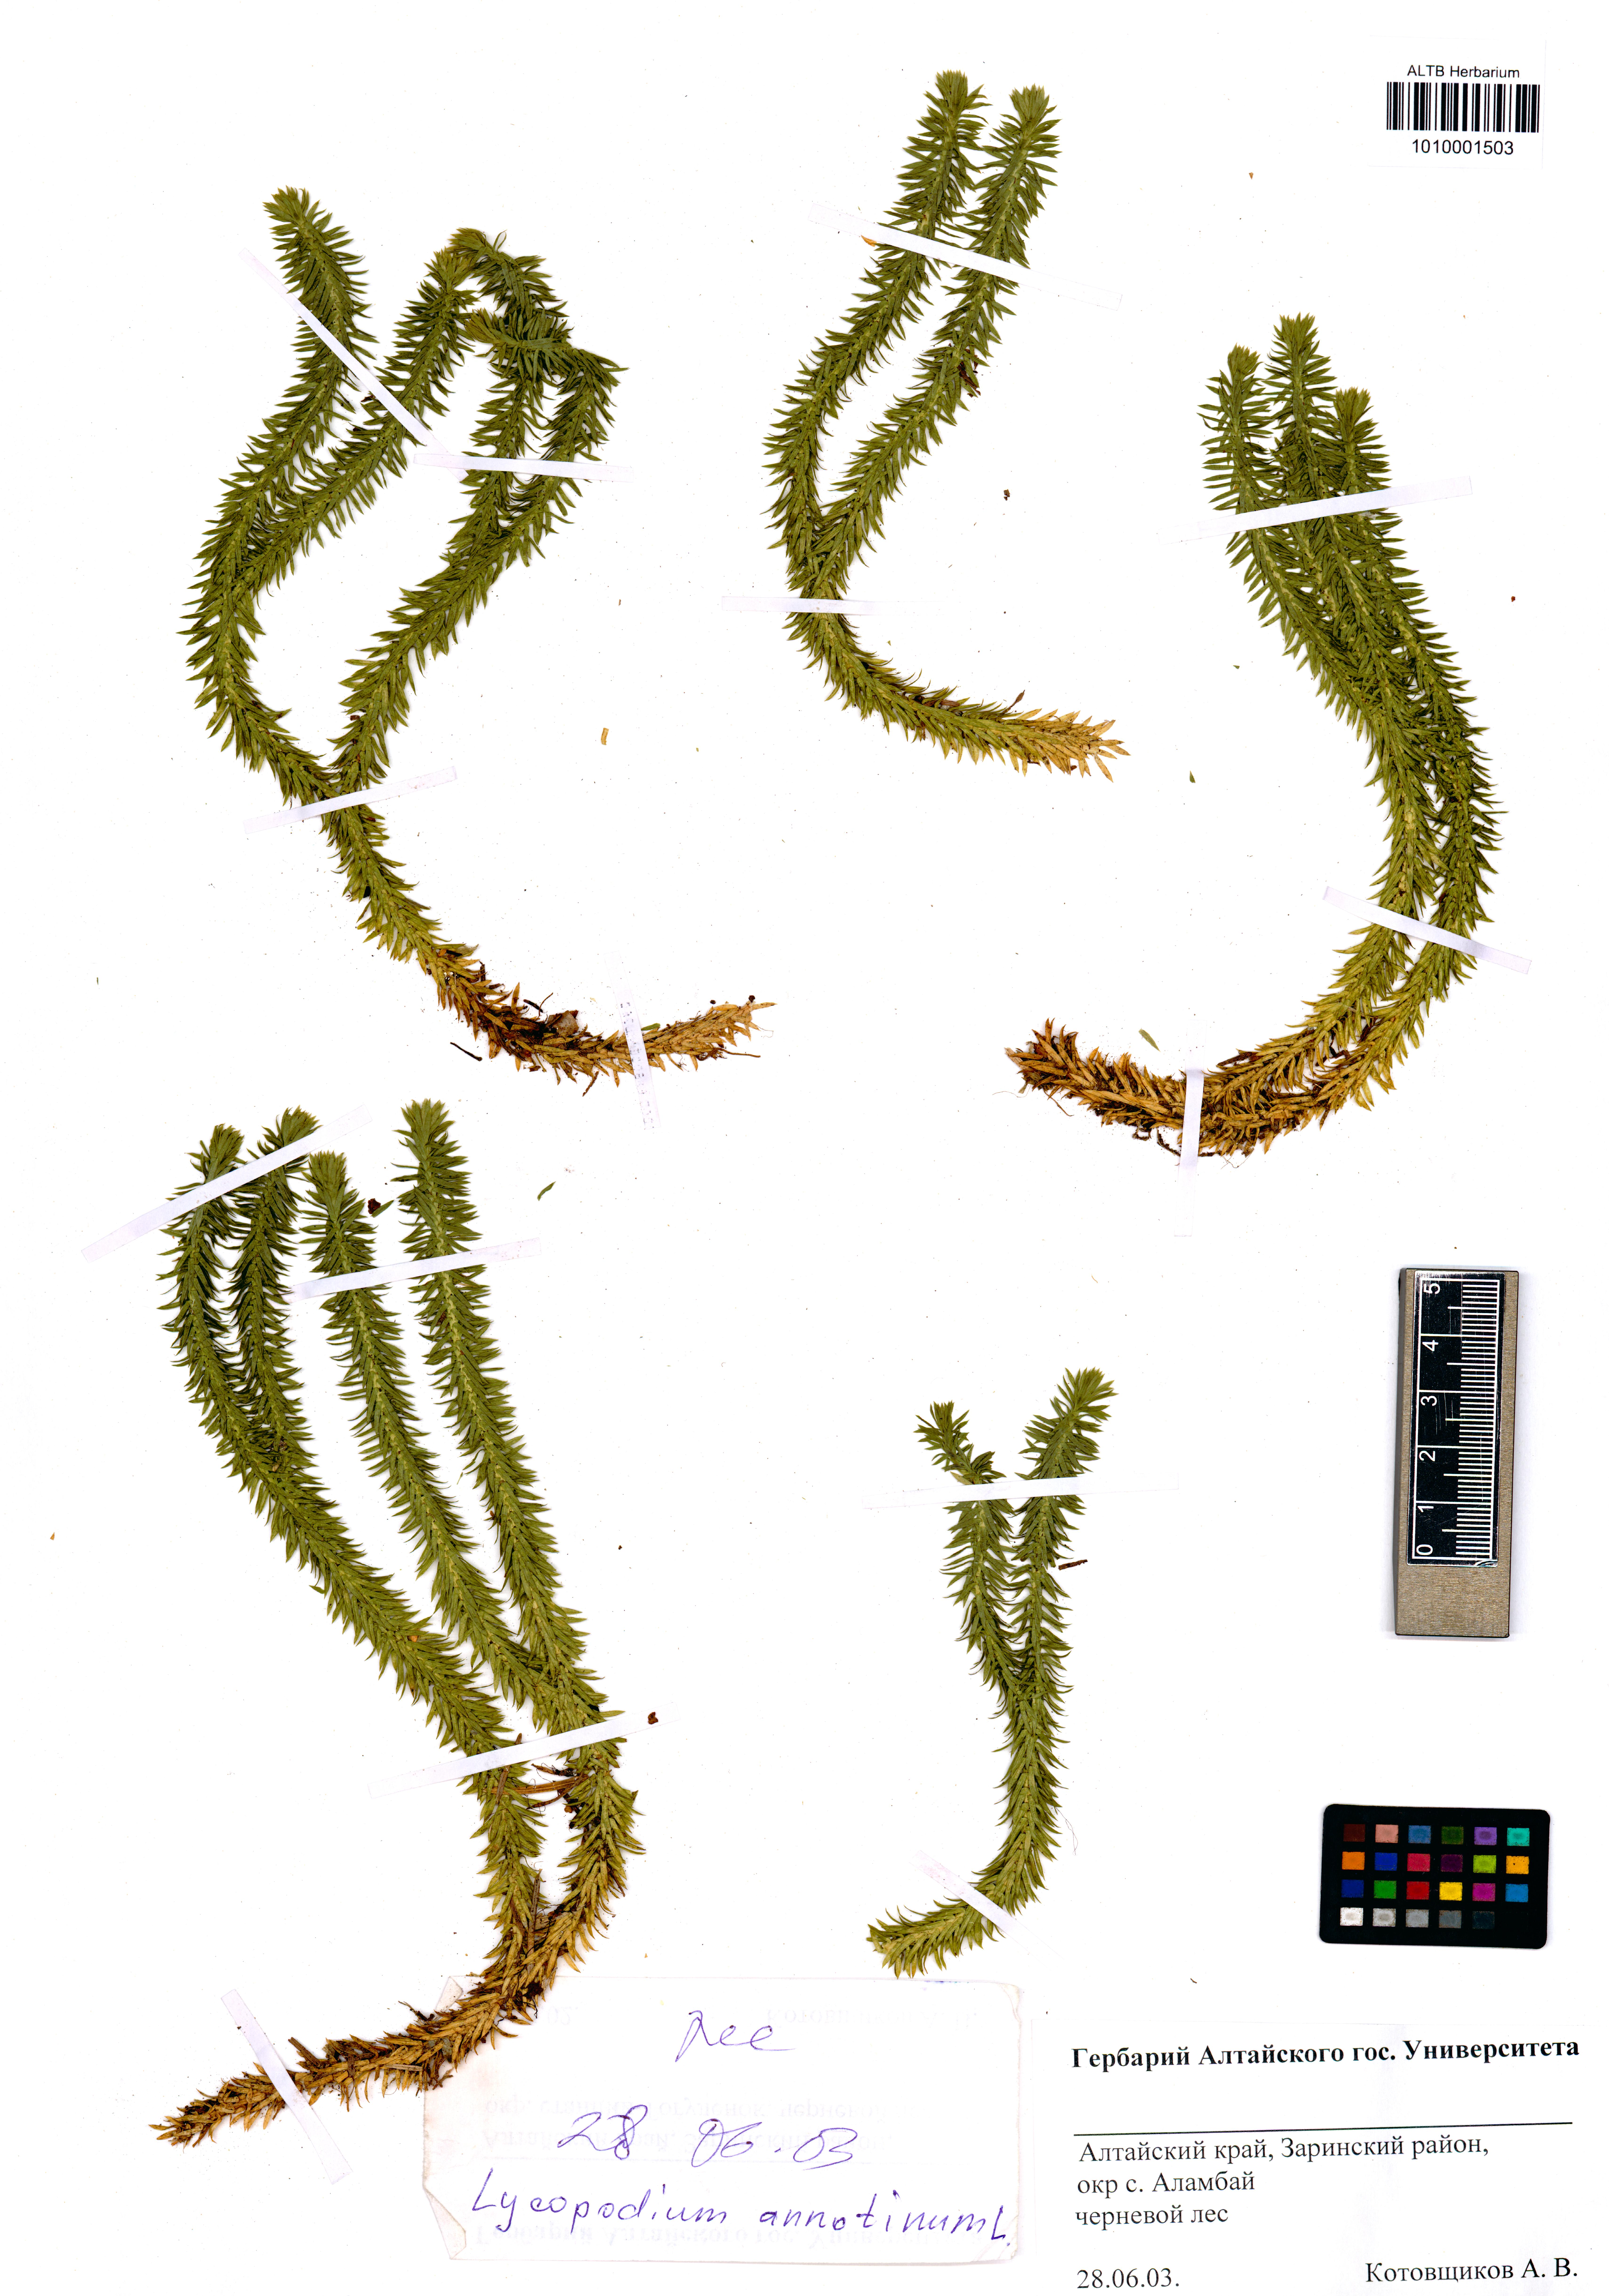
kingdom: Plantae
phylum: Tracheophyta
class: Lycopodiopsida
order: Lycopodiales
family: Lycopodiaceae
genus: Spinulum
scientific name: Spinulum annotinum
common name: Interrupted club-moss
